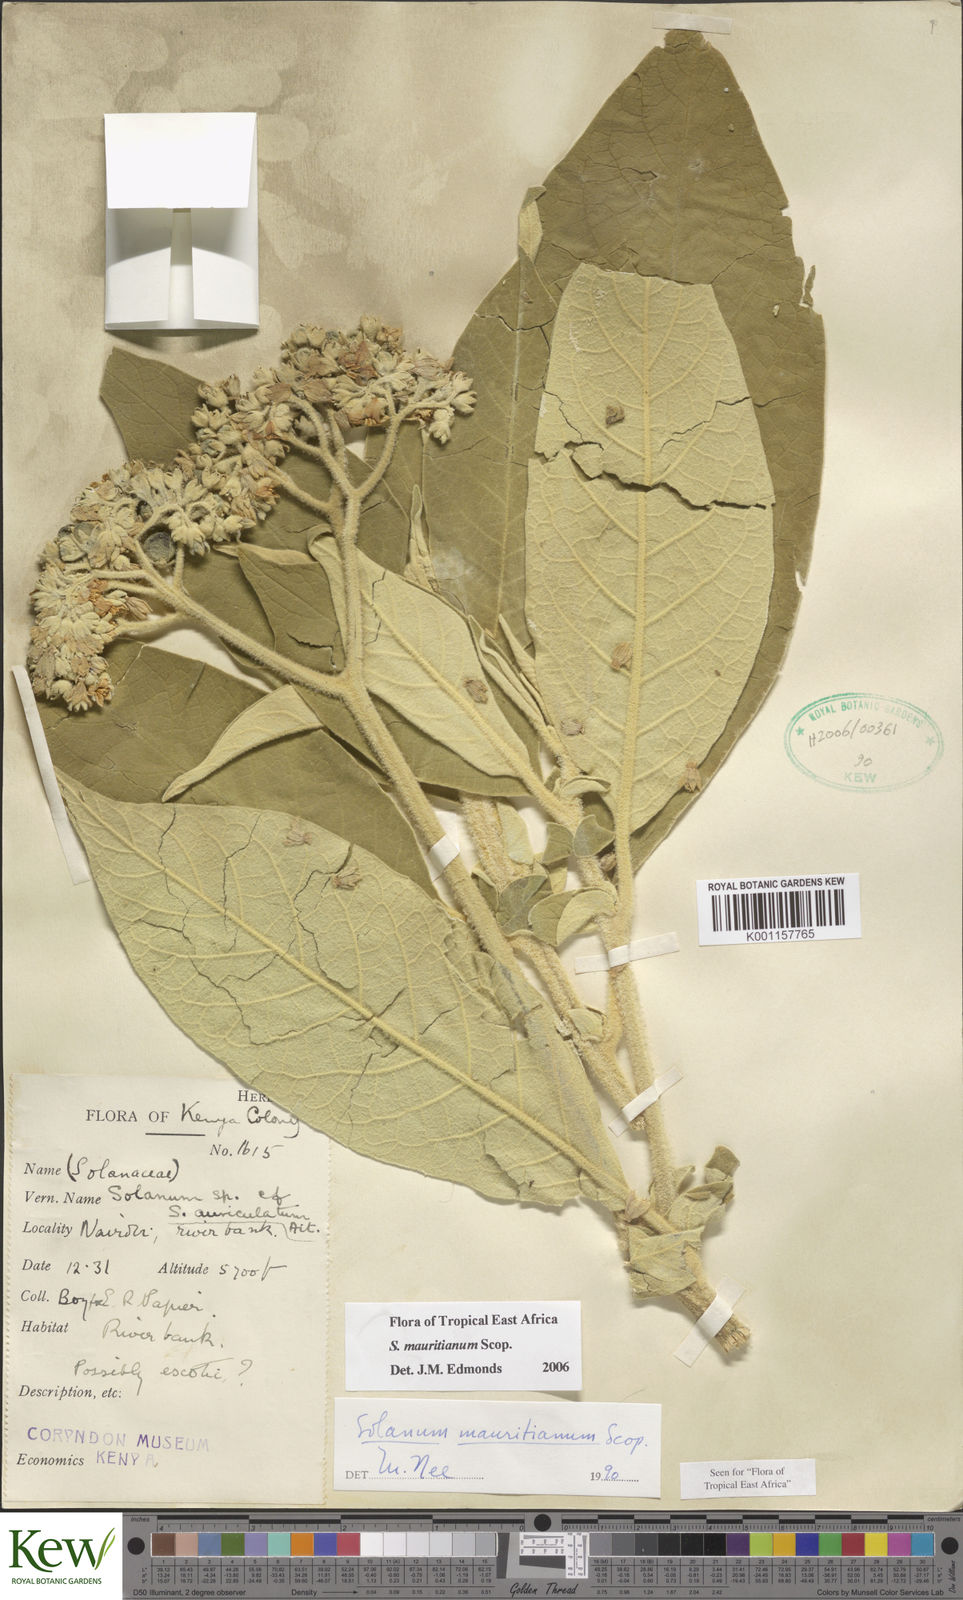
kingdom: Plantae
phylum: Tracheophyta
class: Magnoliopsida
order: Solanales
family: Solanaceae
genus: Solanum
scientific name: Solanum mauritianum
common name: Earleaf nightshade
